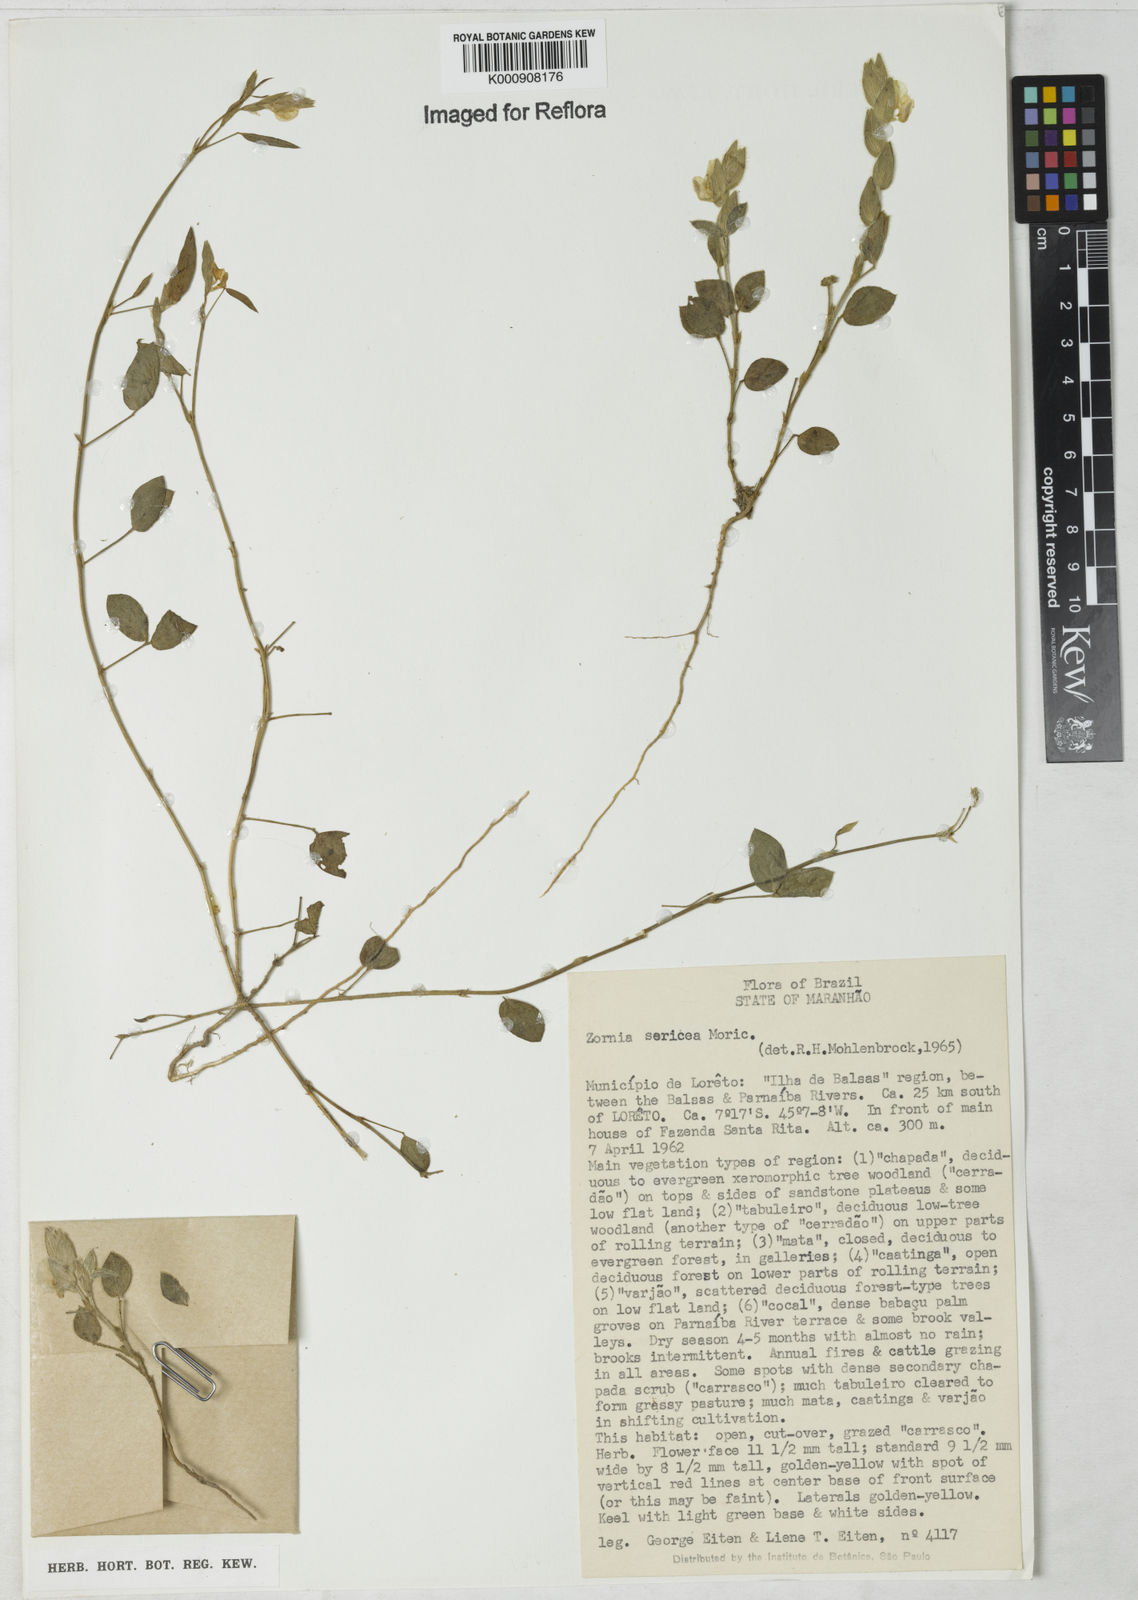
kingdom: Plantae
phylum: Tracheophyta
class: Magnoliopsida
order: Fabales
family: Fabaceae
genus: Zornia
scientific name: Zornia sericea
